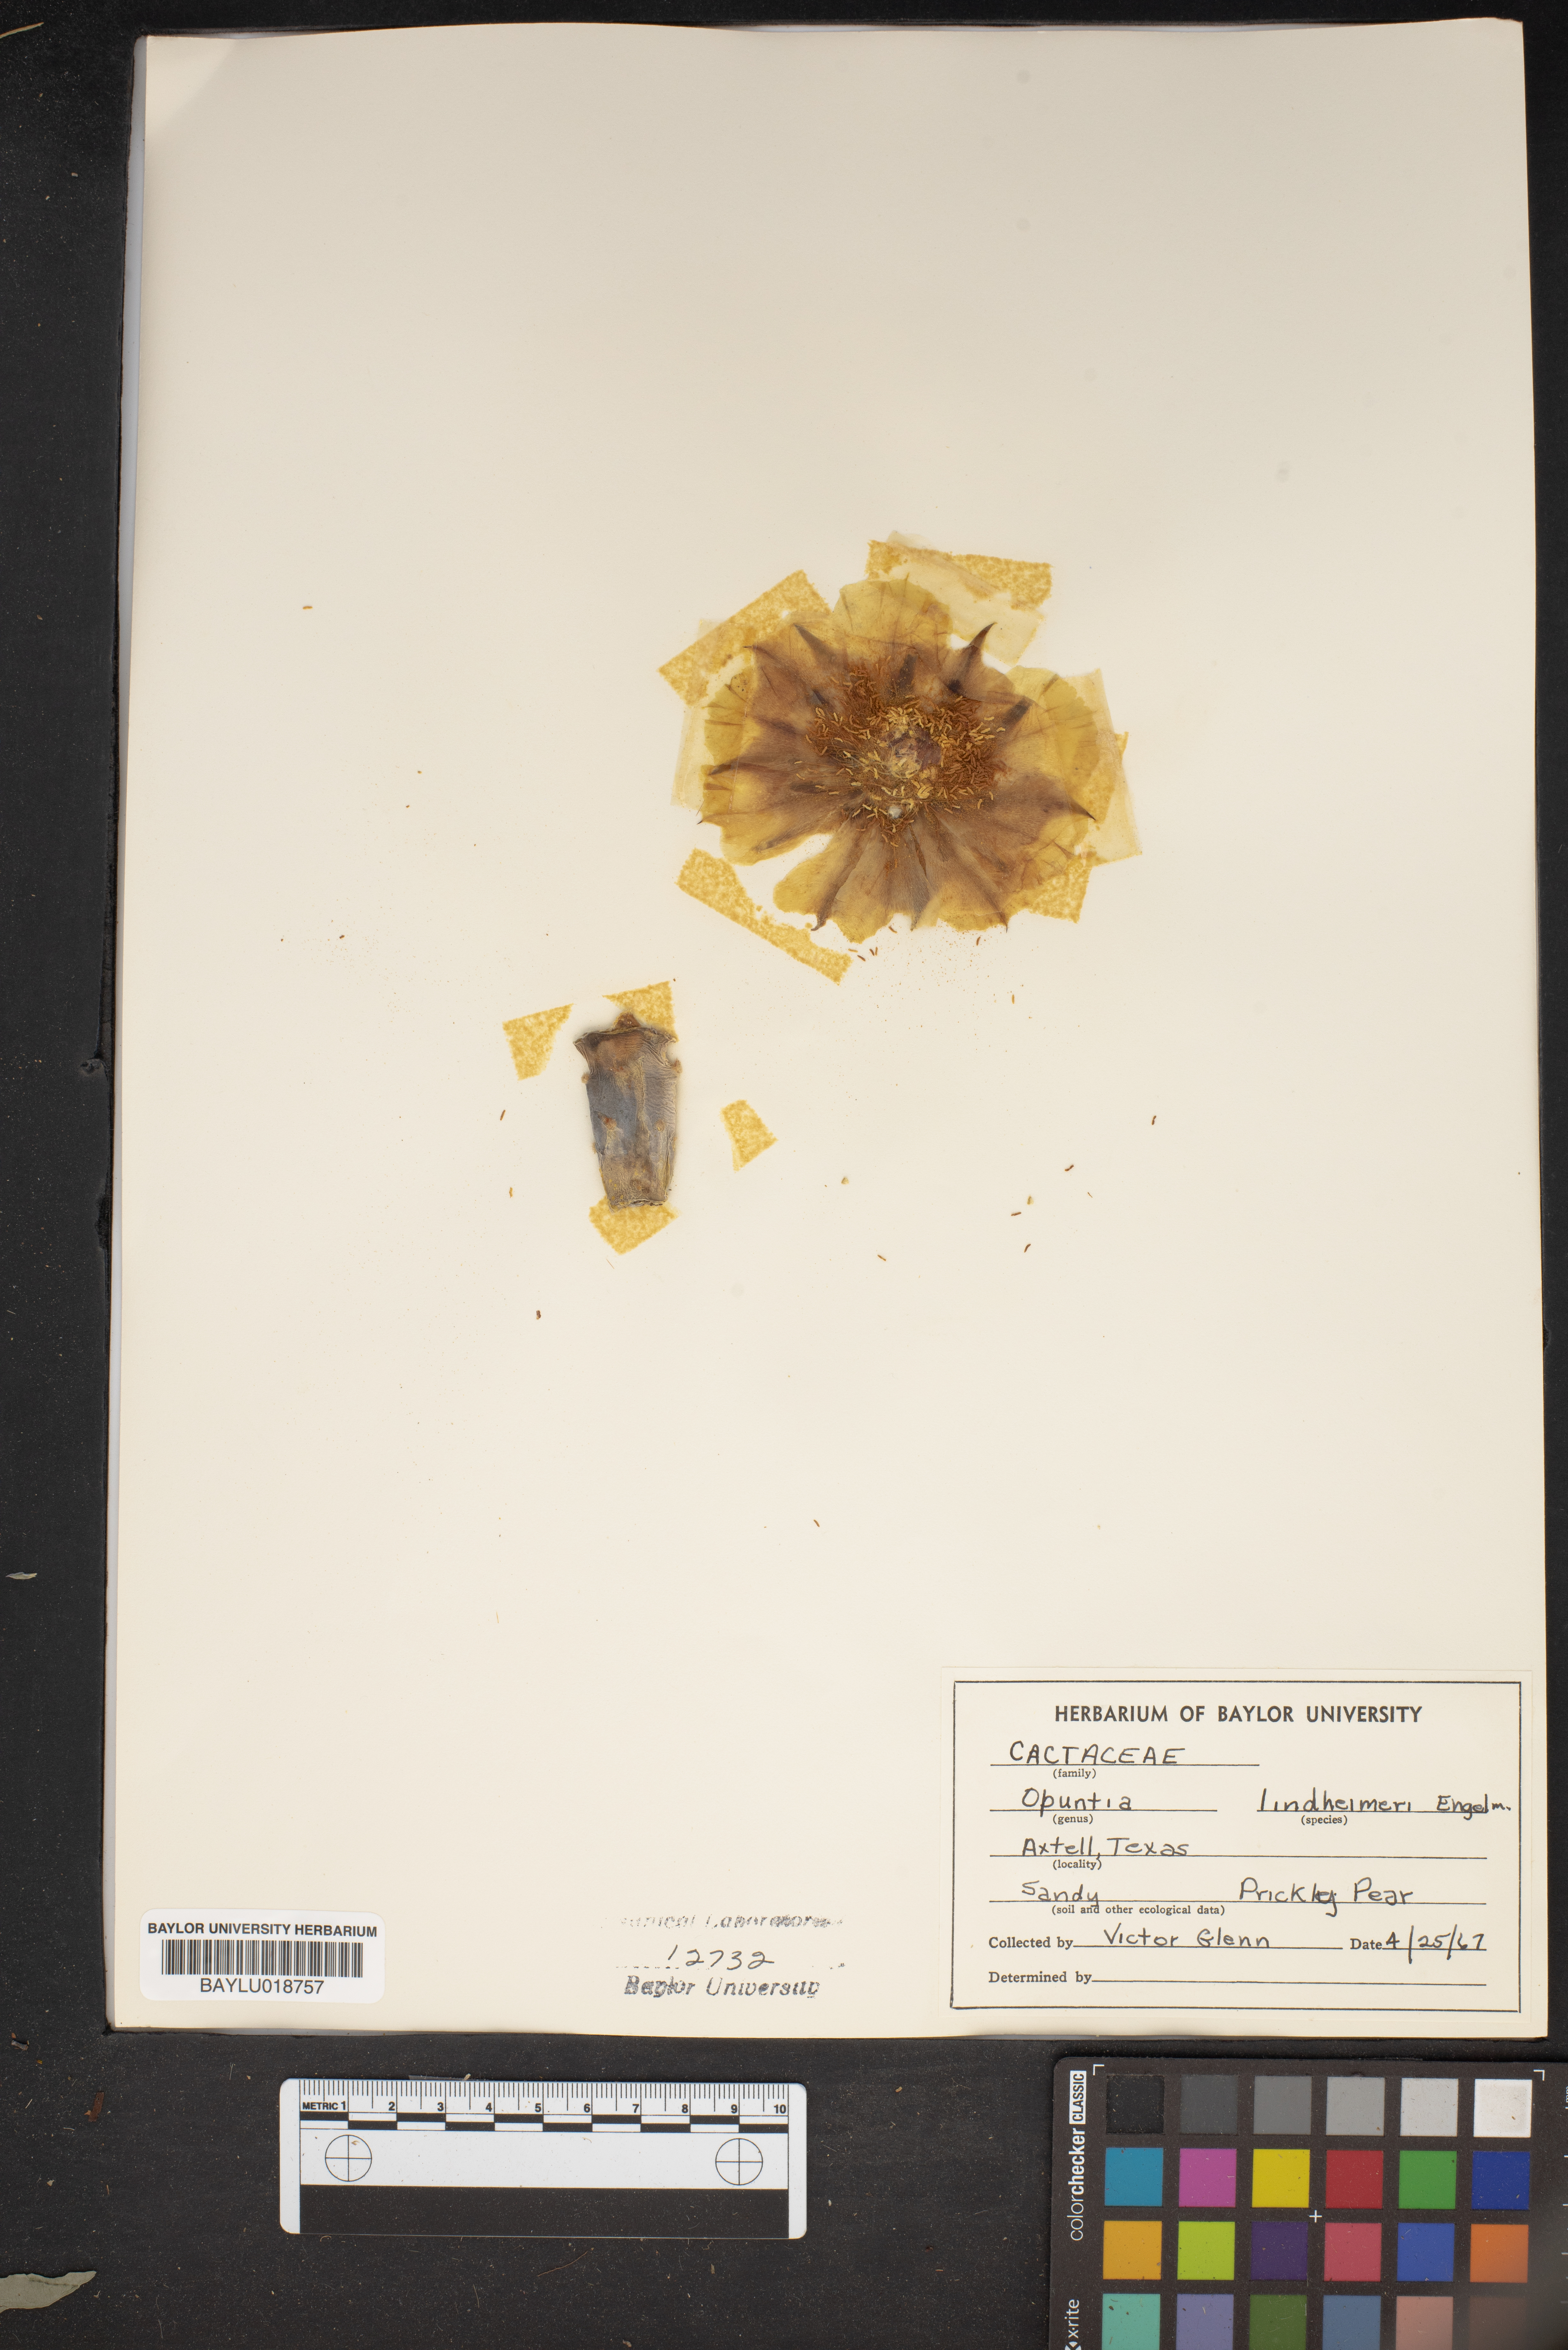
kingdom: Plantae
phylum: Tracheophyta
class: Magnoliopsida
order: Caryophyllales
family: Cactaceae
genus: Opuntia
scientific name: Opuntia engelmannii
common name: Cactus-apple
